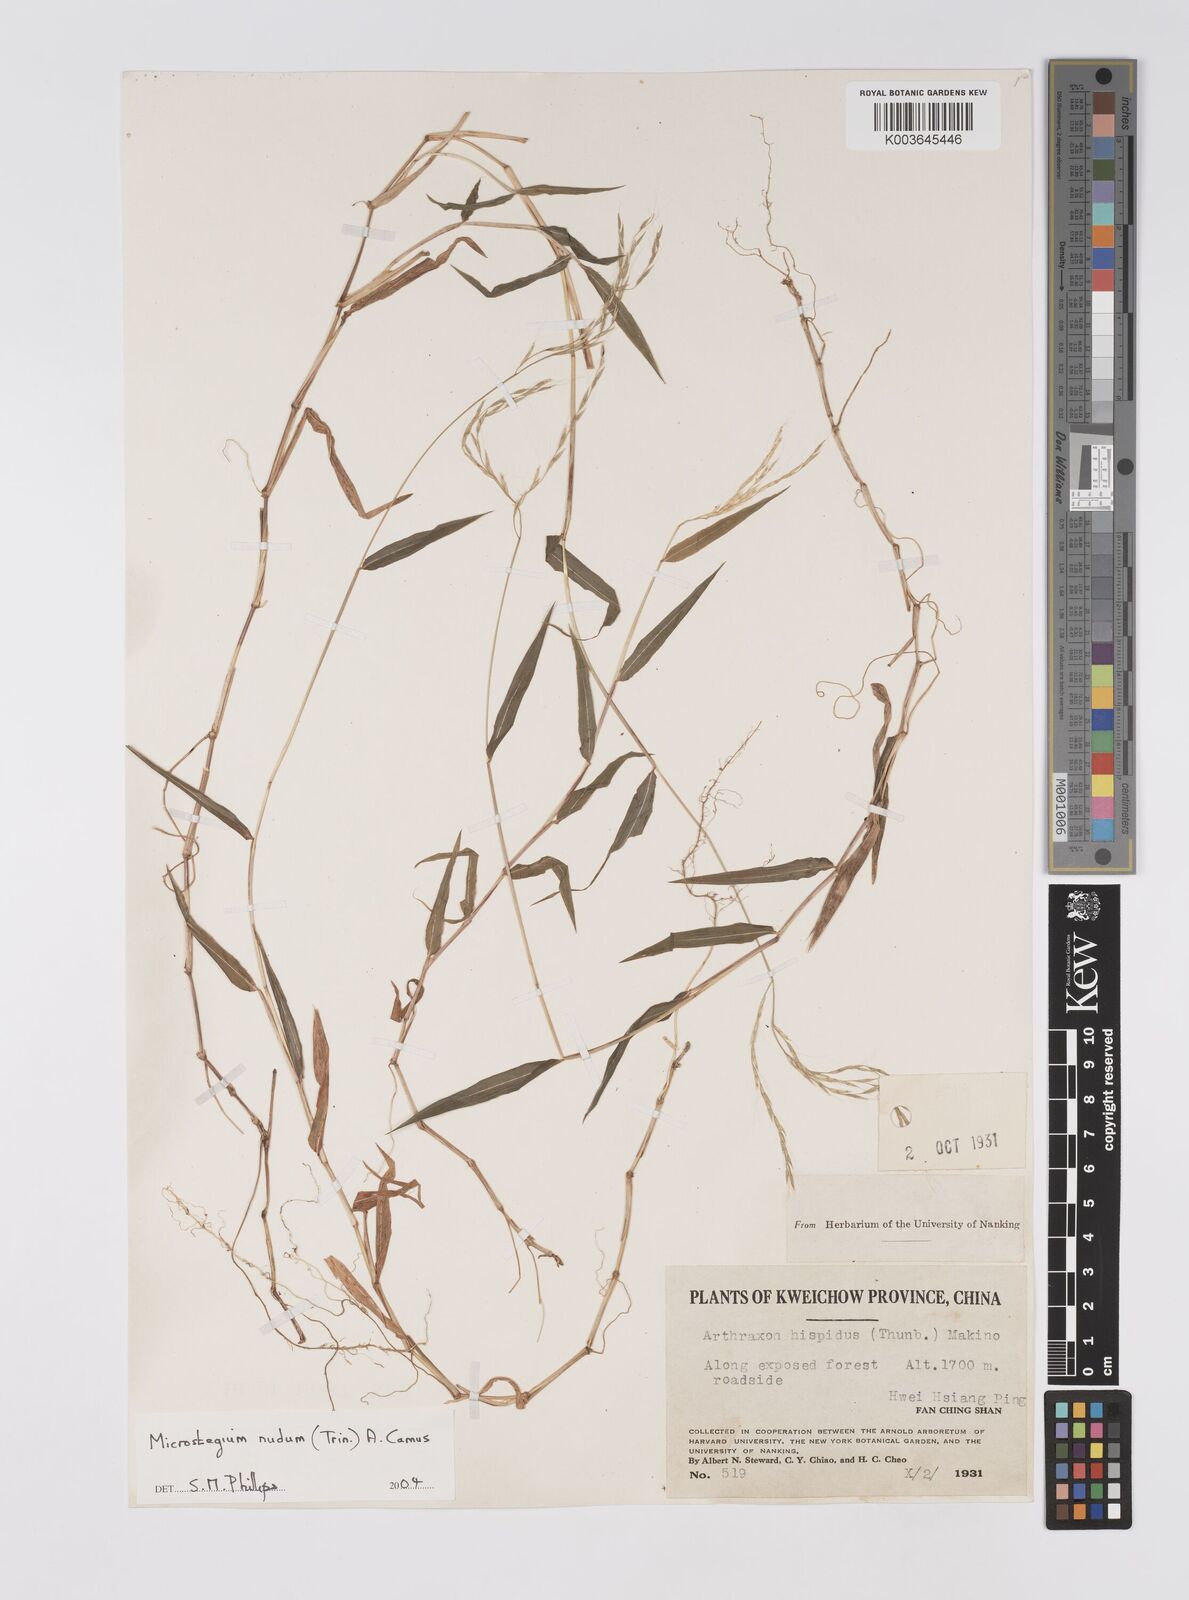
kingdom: Plantae
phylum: Tracheophyta
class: Liliopsida
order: Poales
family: Poaceae
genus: Microstegium
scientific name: Microstegium nudum
